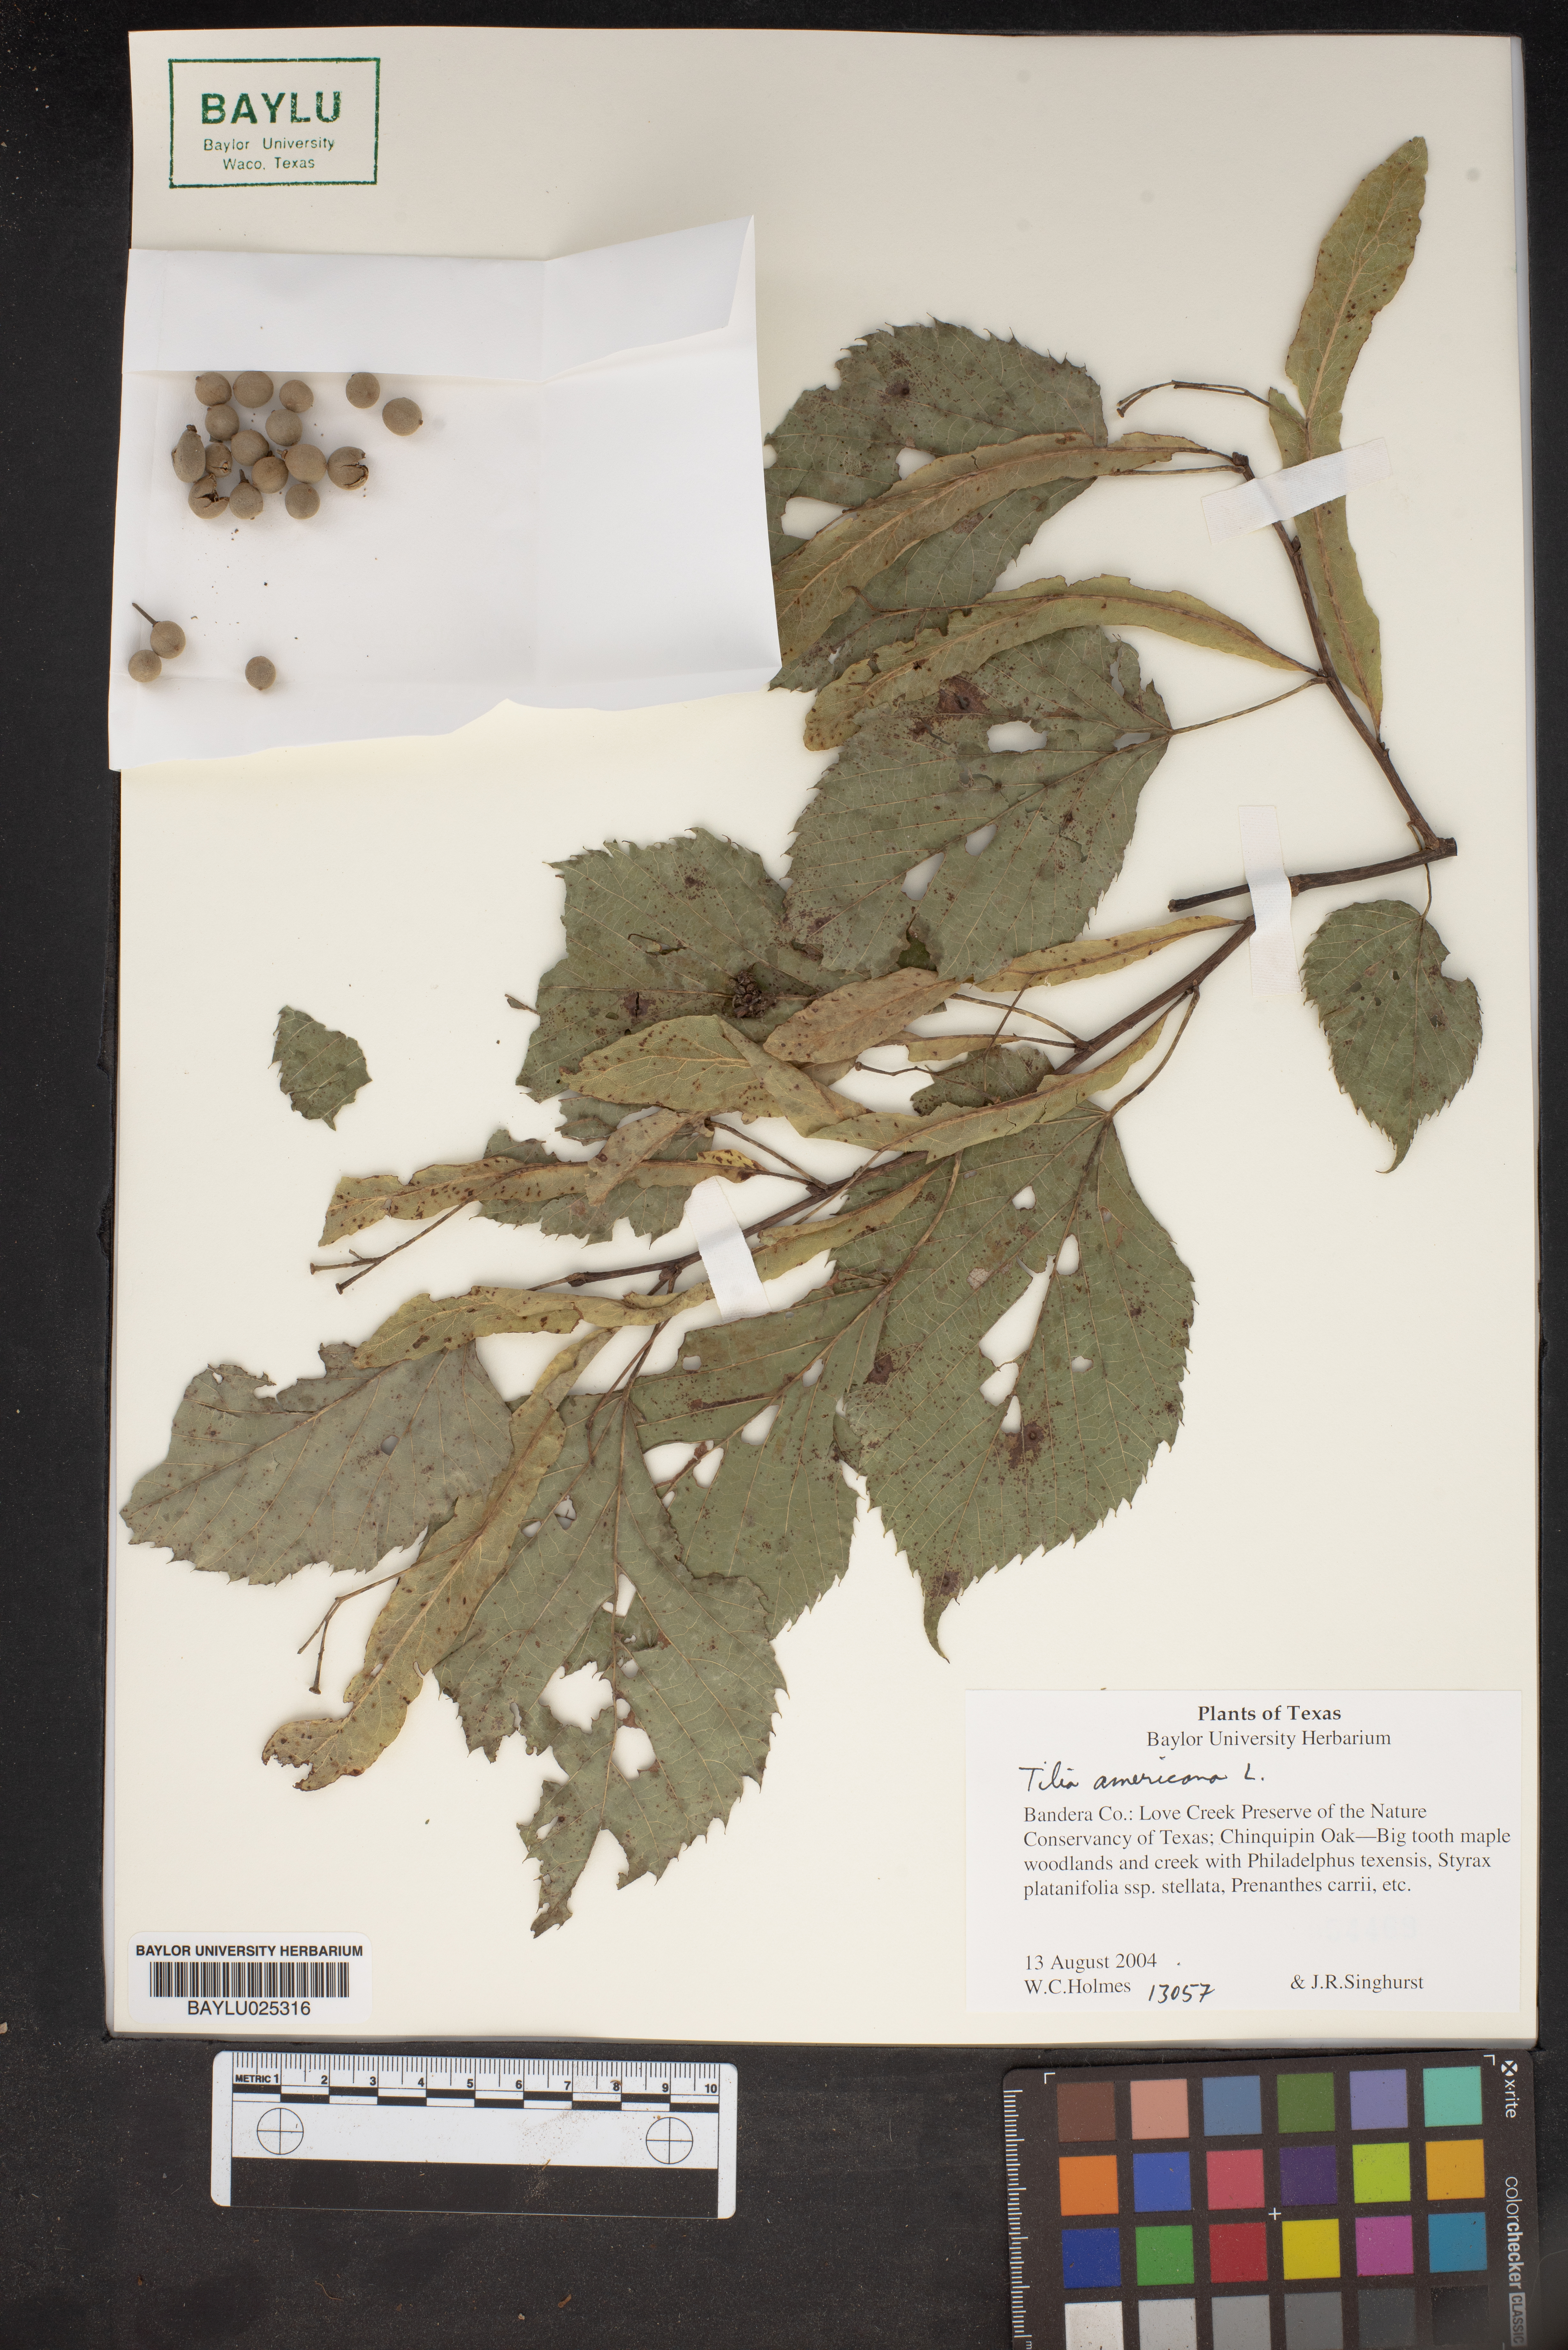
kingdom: Plantae
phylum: Tracheophyta
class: Magnoliopsida
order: Malvales
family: Malvaceae
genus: Tilia
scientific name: Tilia americana
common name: Basswood
